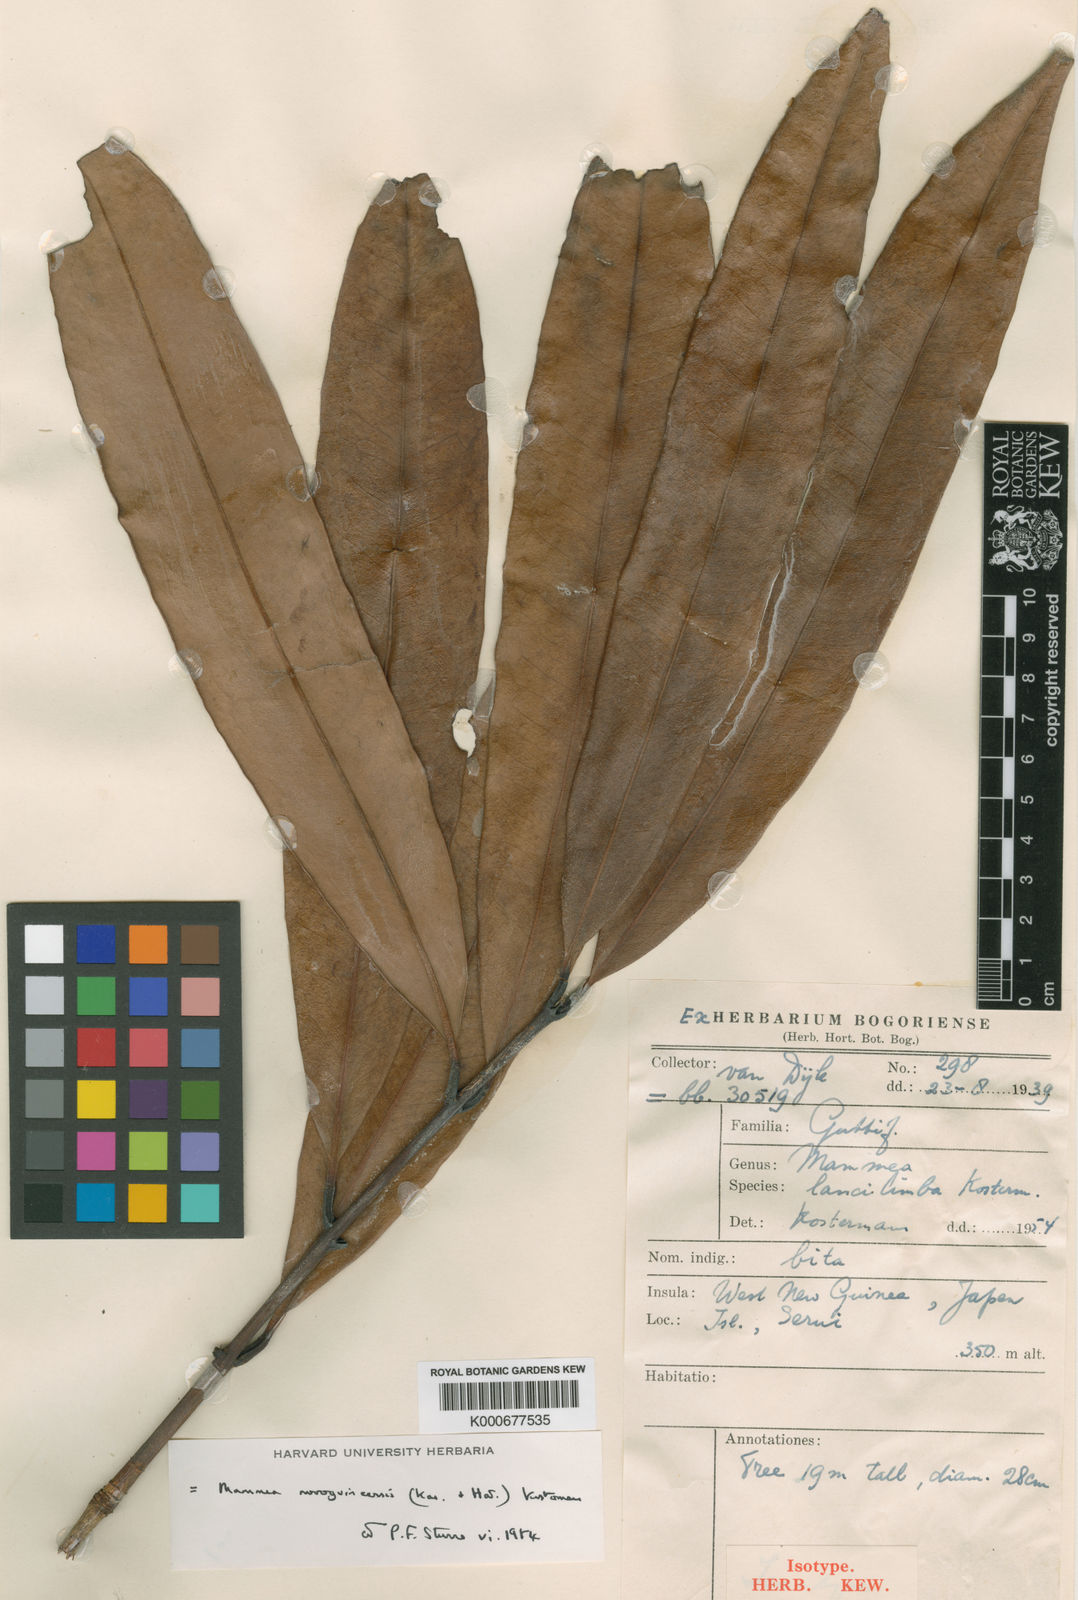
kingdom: Plantae
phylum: Tracheophyta
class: Magnoliopsida
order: Malpighiales
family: Calophyllaceae
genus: Mammea
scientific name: Mammea novoguineensis
